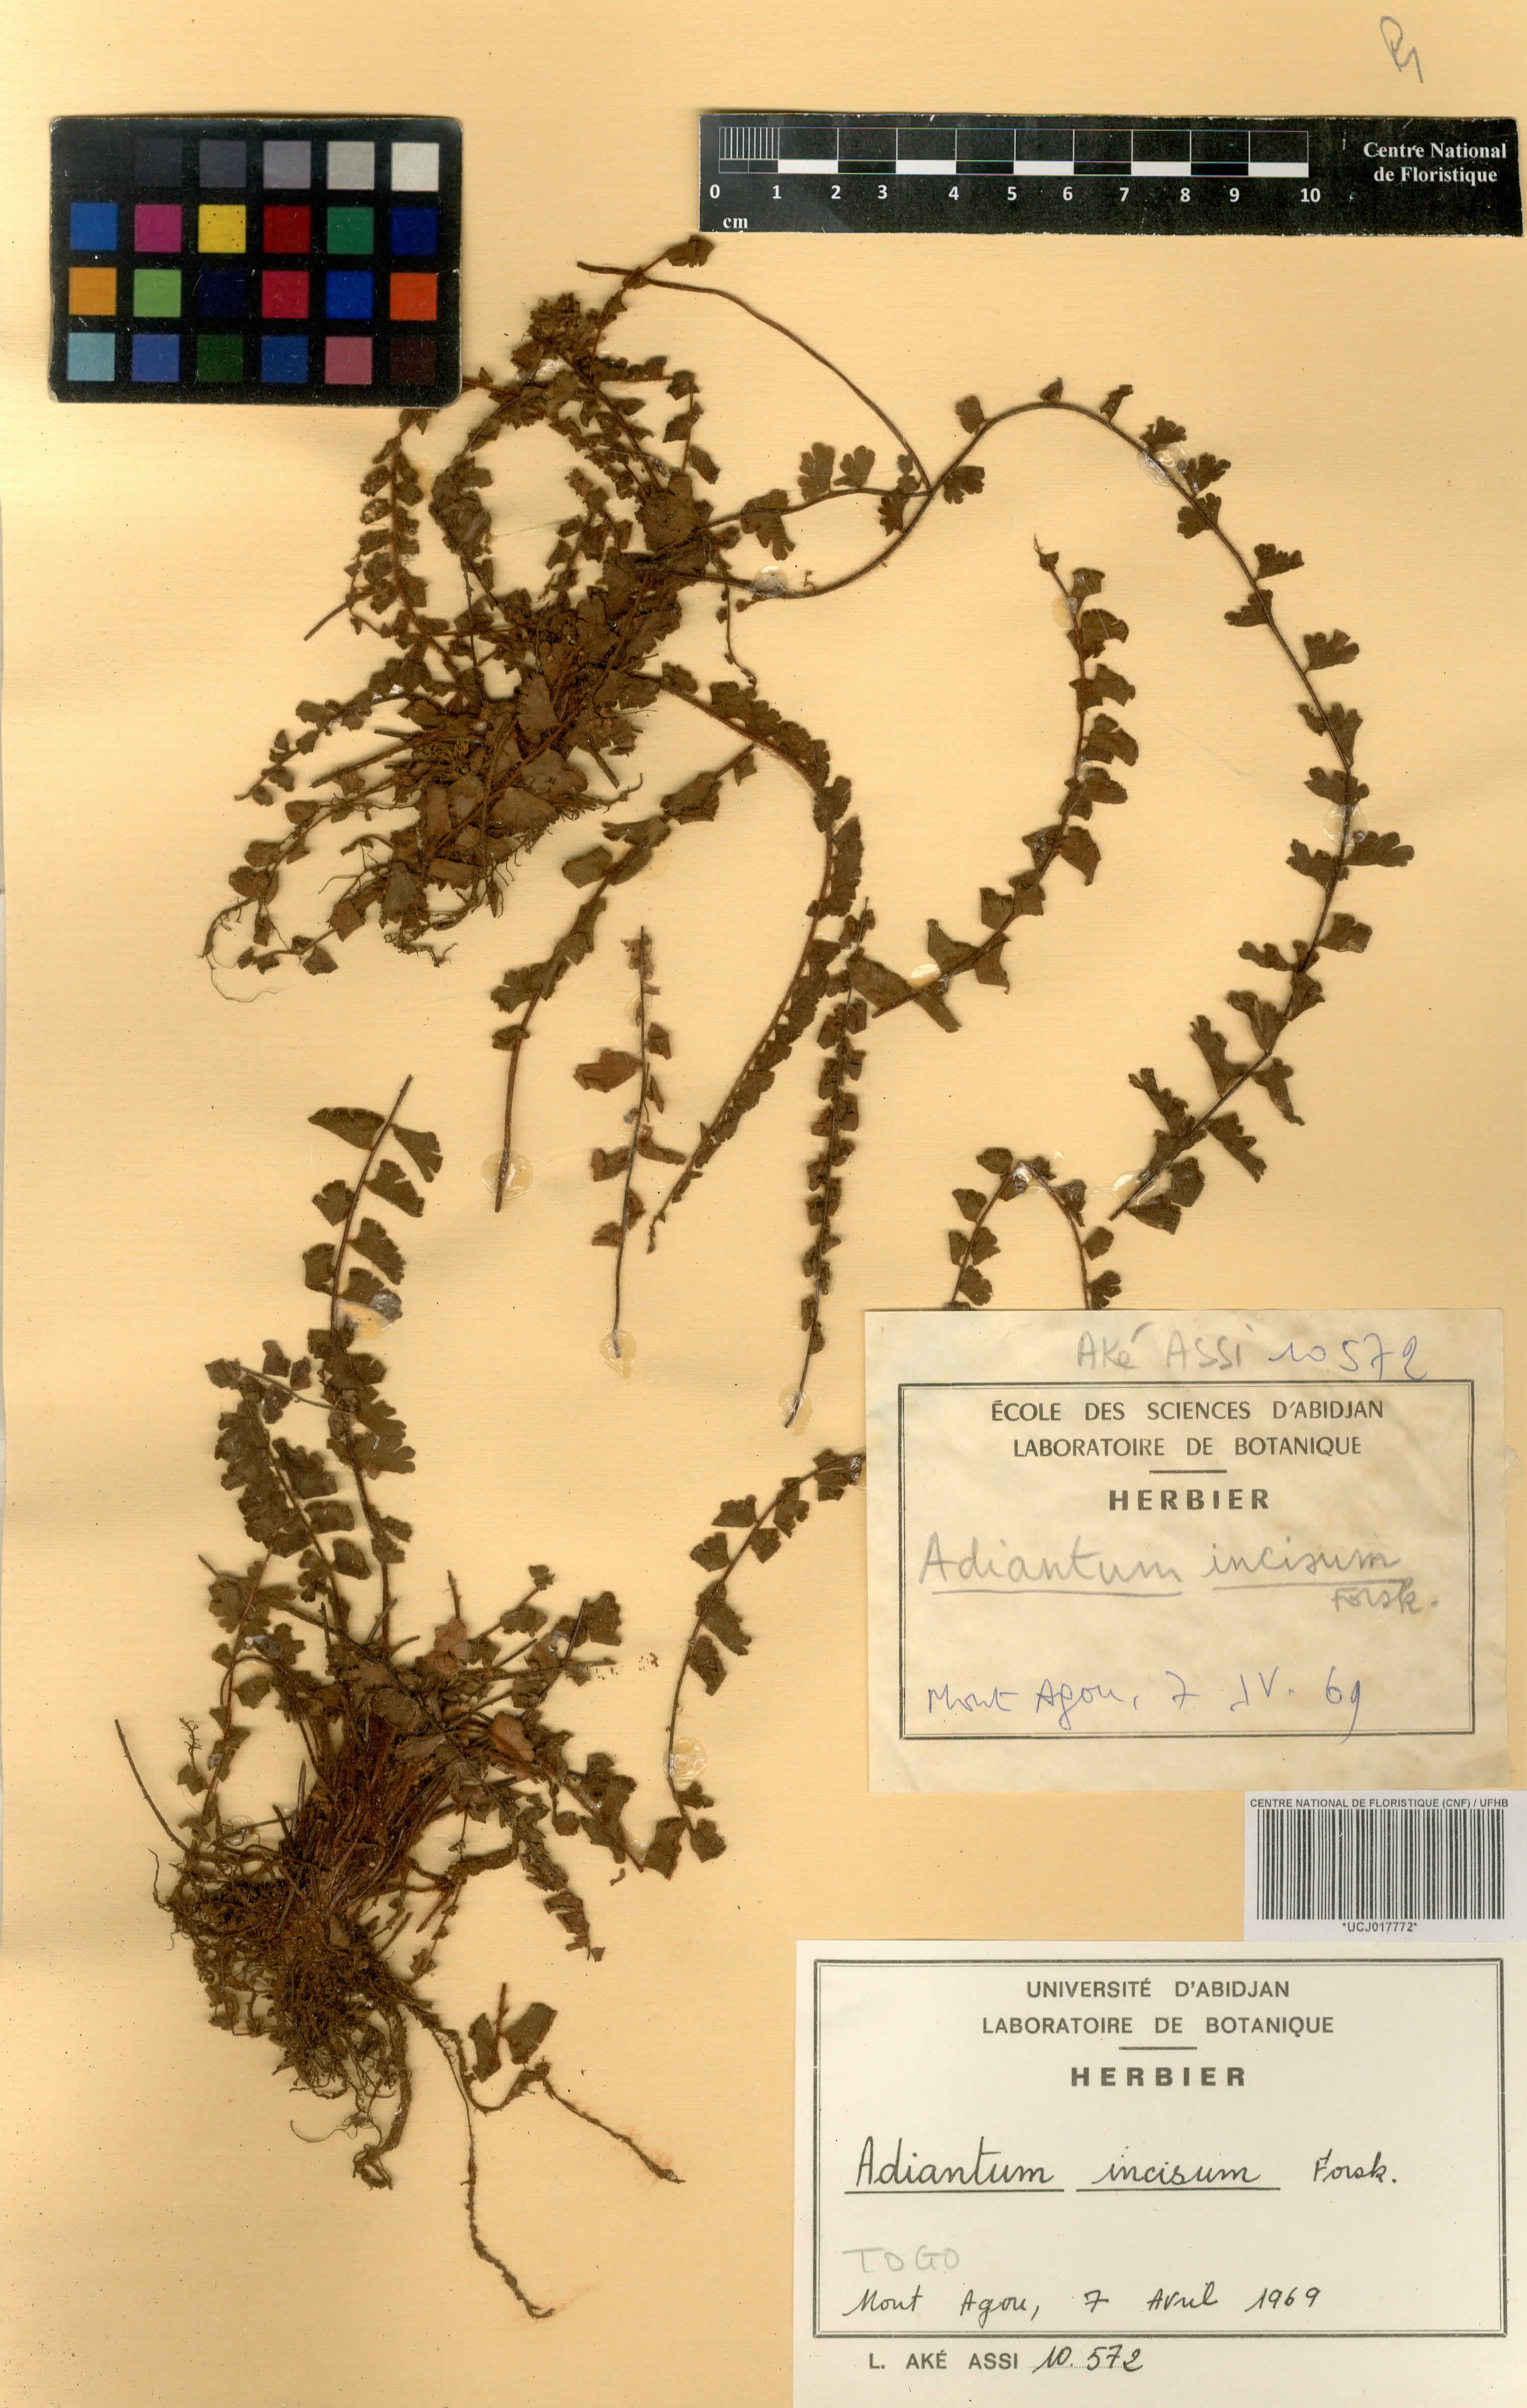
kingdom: Plantae
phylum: Tracheophyta
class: Polypodiopsida
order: Polypodiales
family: Pteridaceae
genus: Adiantum
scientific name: Adiantum incisum
